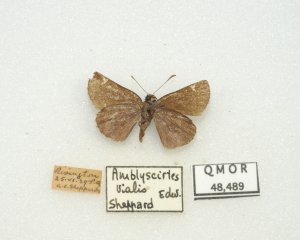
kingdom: Animalia
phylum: Arthropoda
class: Insecta
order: Lepidoptera
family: Hesperiidae
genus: Mastor
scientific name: Mastor vialis
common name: Common Roadside-Skipper
